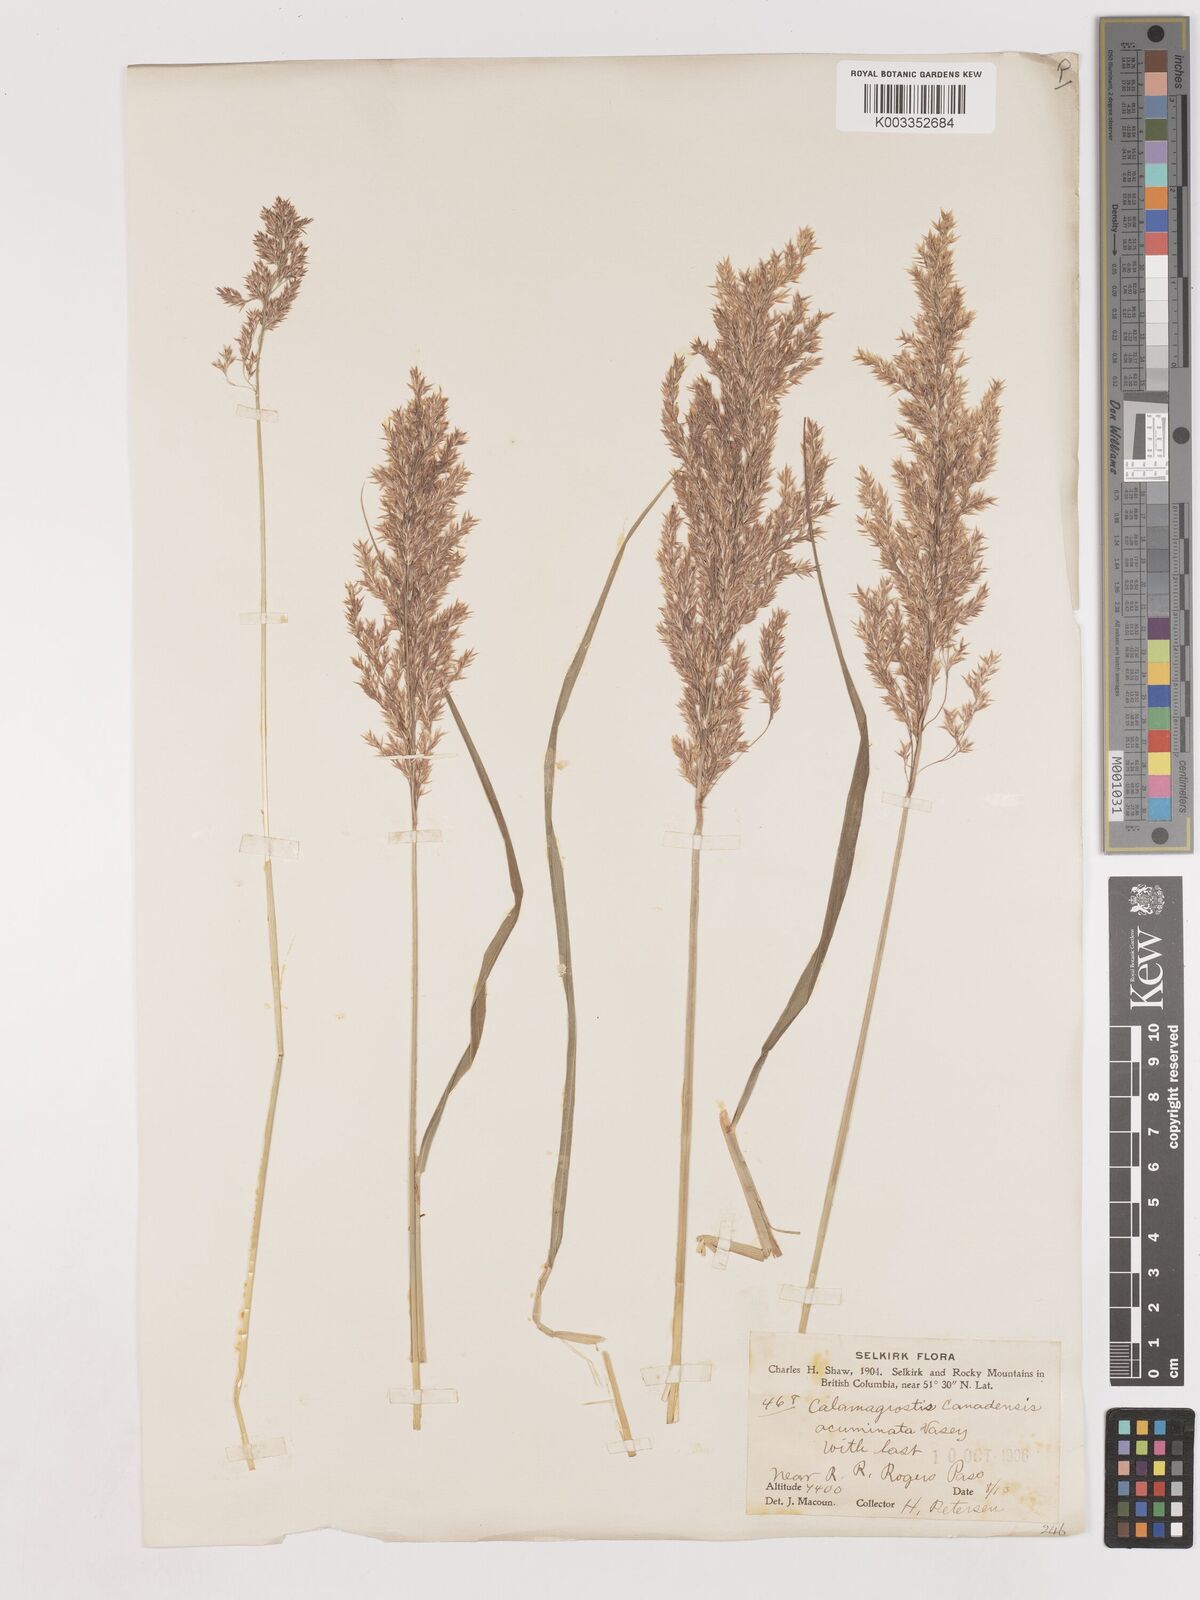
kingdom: Plantae
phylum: Tracheophyta
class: Liliopsida
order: Poales
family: Poaceae
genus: Calamagrostis
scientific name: Calamagrostis canadensis
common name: Canada bluejoint
